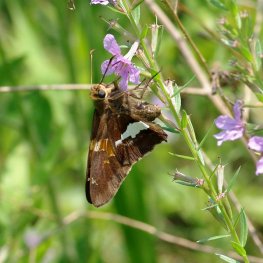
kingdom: Animalia
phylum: Arthropoda
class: Insecta
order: Lepidoptera
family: Hesperiidae
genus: Epargyreus
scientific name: Epargyreus clarus
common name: Silver-spotted Skipper
